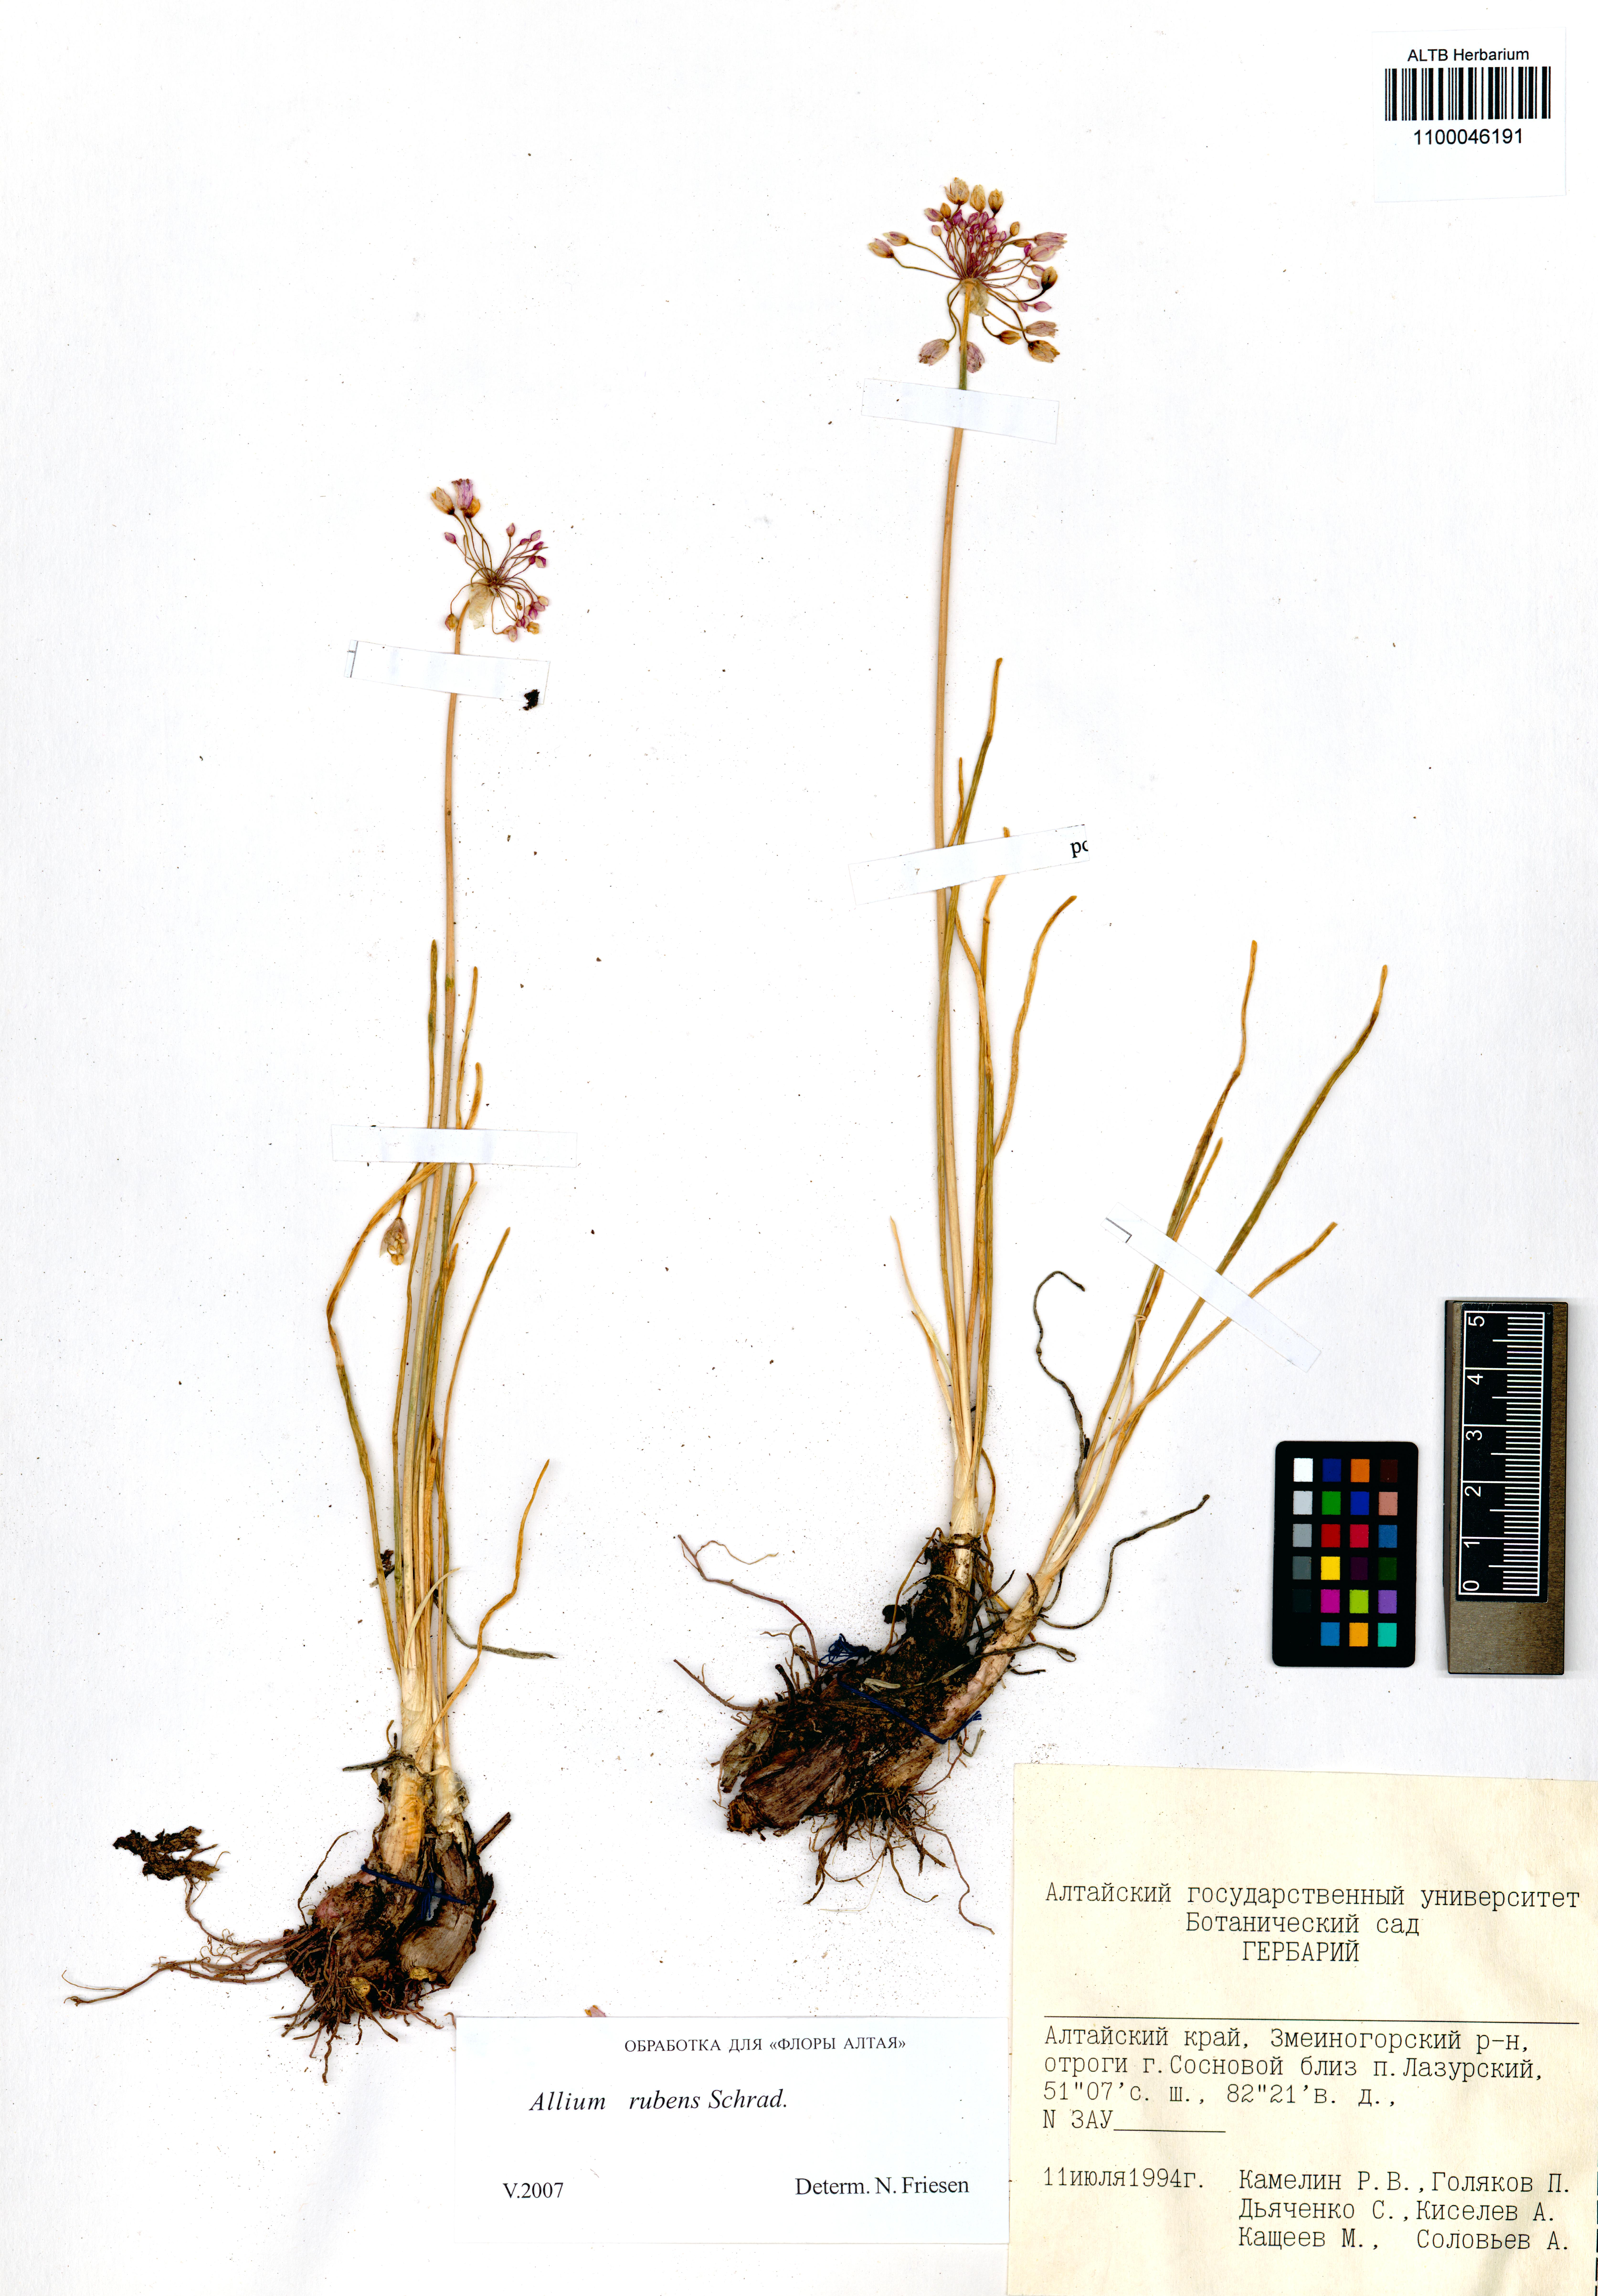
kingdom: Plantae
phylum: Tracheophyta
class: Liliopsida
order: Asparagales
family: Amaryllidaceae
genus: Allium
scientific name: Allium rubens
